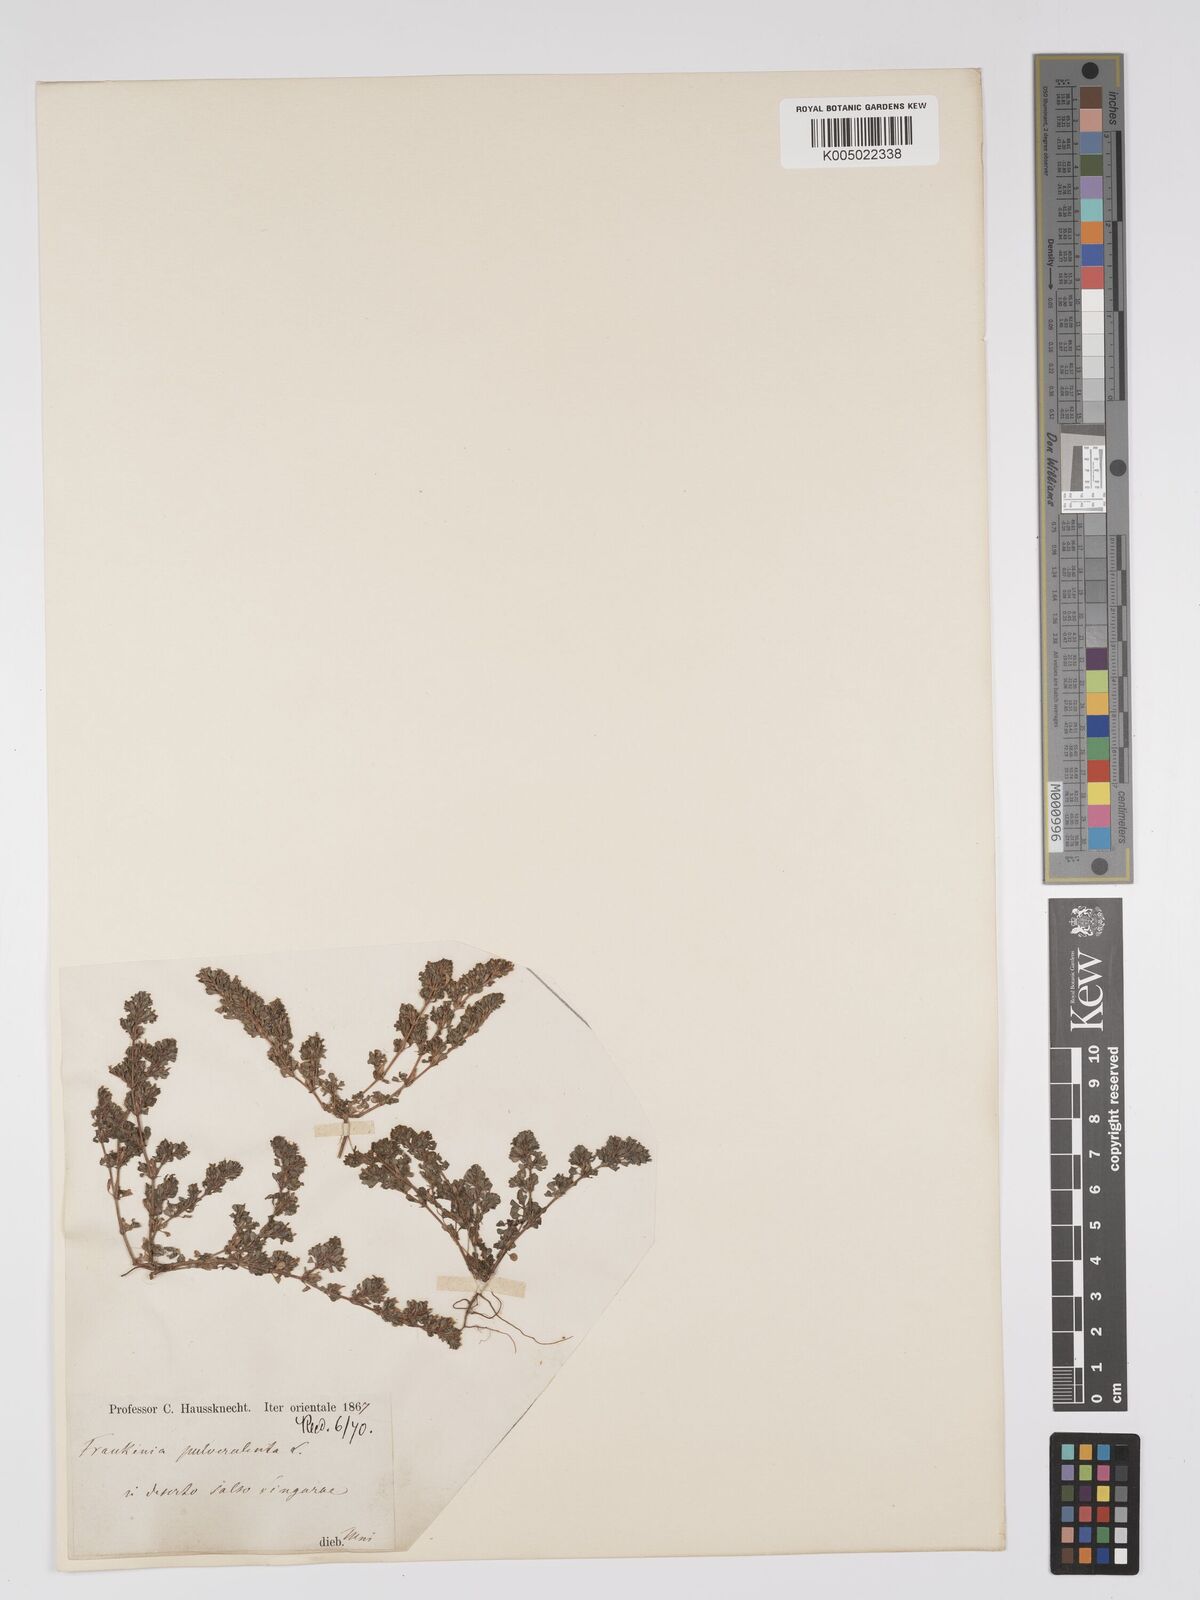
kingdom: Plantae
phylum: Tracheophyta
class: Magnoliopsida
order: Caryophyllales
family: Frankeniaceae
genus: Frankenia
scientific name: Frankenia pulverulenta
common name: European seaheath
